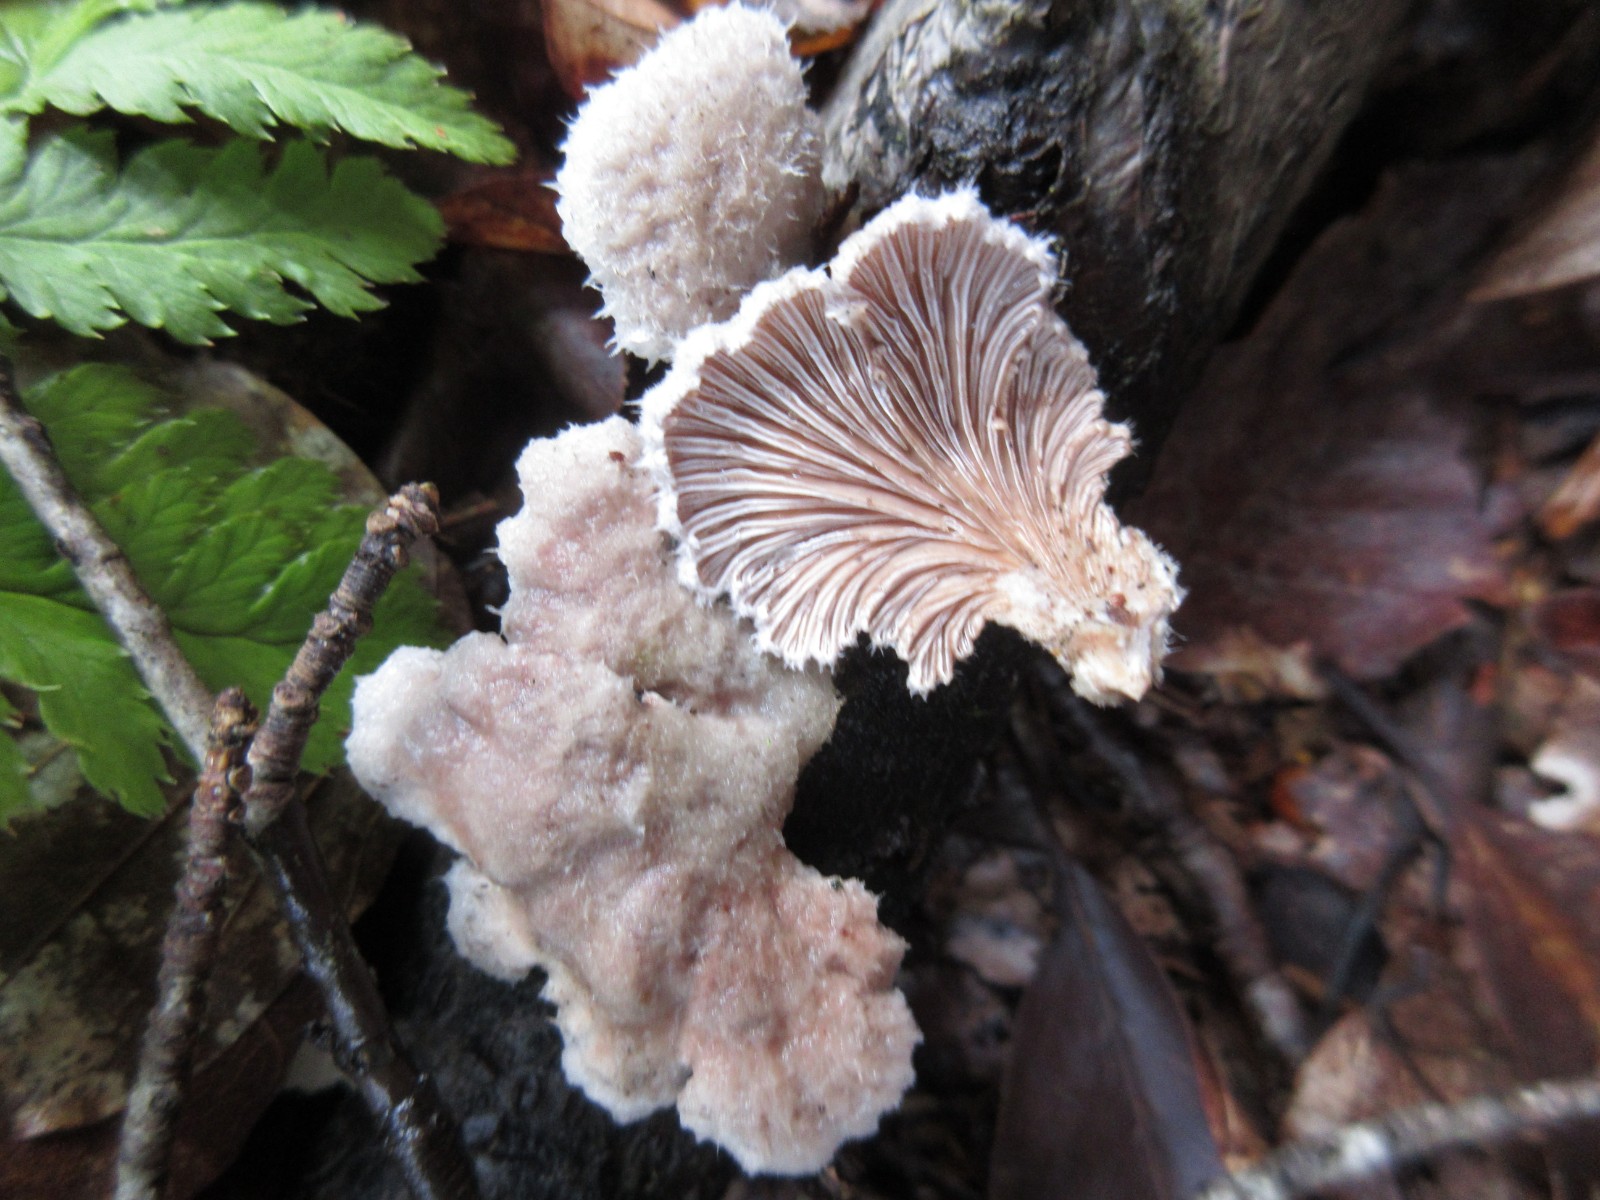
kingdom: Fungi
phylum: Basidiomycota
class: Agaricomycetes
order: Agaricales
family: Schizophyllaceae
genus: Schizophyllum
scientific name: Schizophyllum commune
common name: kløvblad
